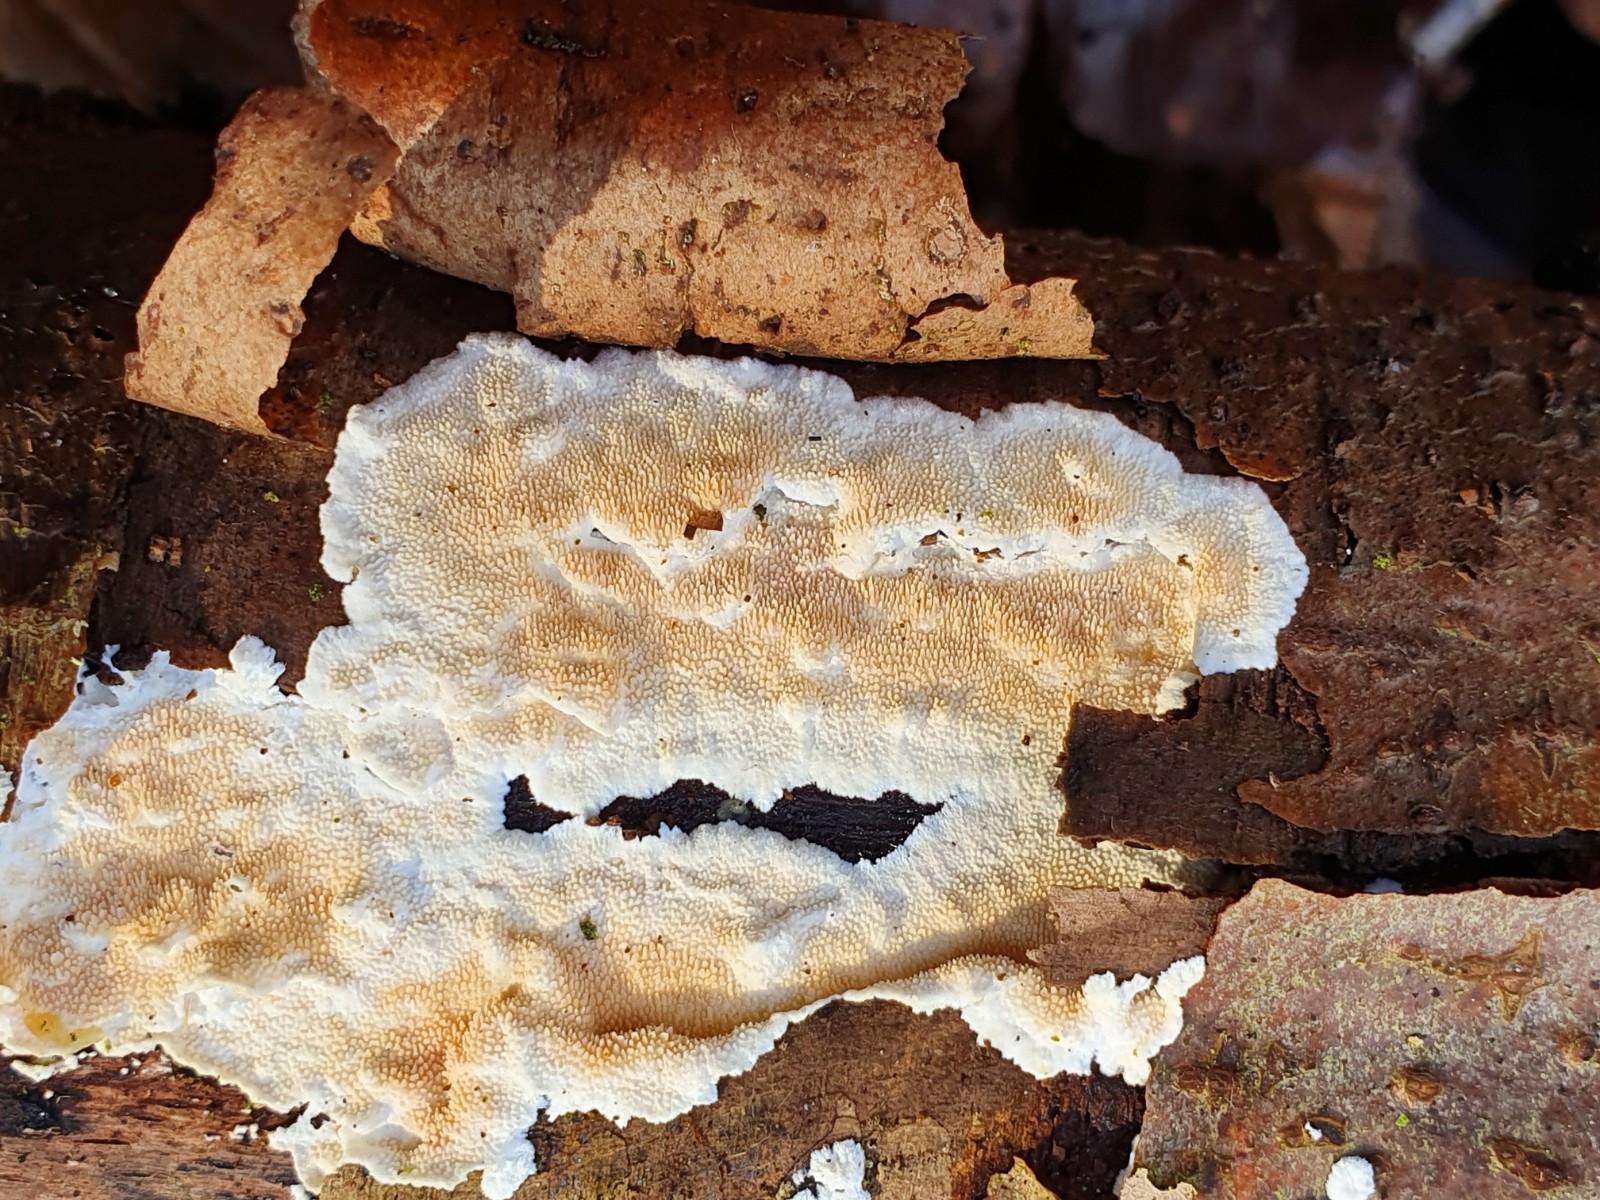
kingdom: Fungi
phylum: Basidiomycota
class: Agaricomycetes
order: Polyporales
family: Steccherinaceae
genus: Steccherinum
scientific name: Steccherinum ochraceum
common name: almindelig skønpig
